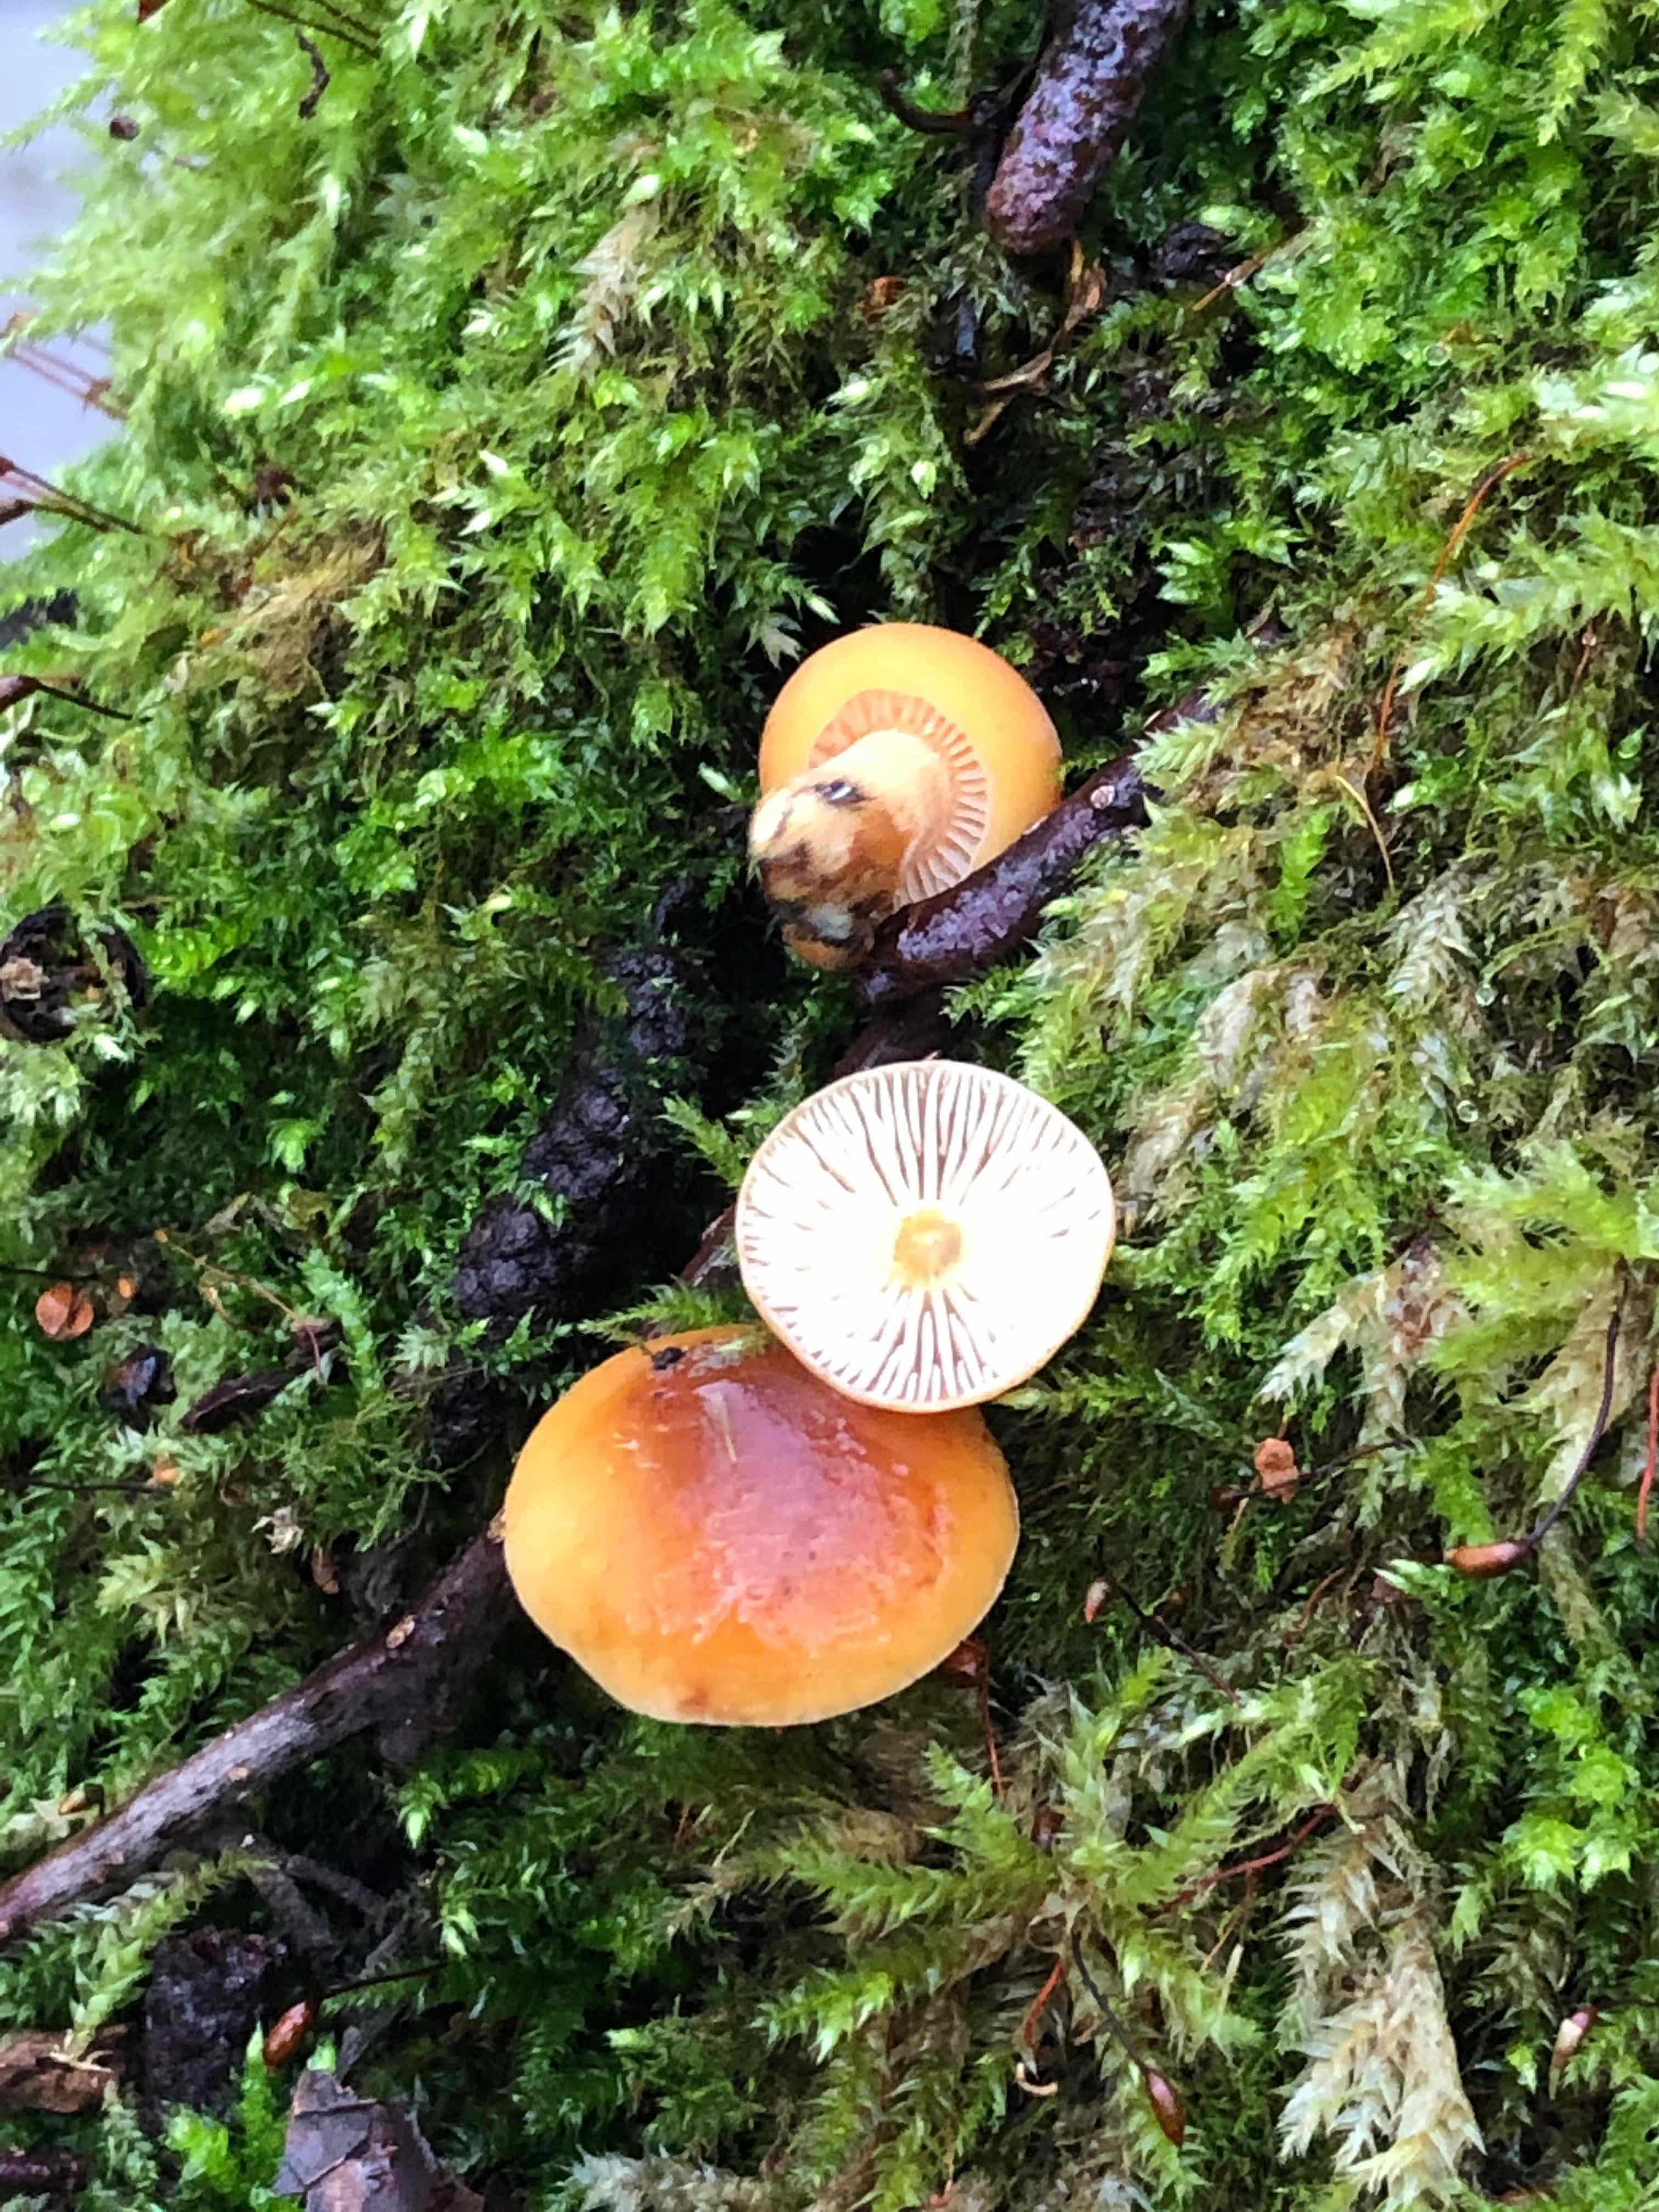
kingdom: Fungi
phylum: Basidiomycota
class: Agaricomycetes
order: Agaricales
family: Physalacriaceae
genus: Flammulina
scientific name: Flammulina velutipes
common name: gul fløjlsfod
